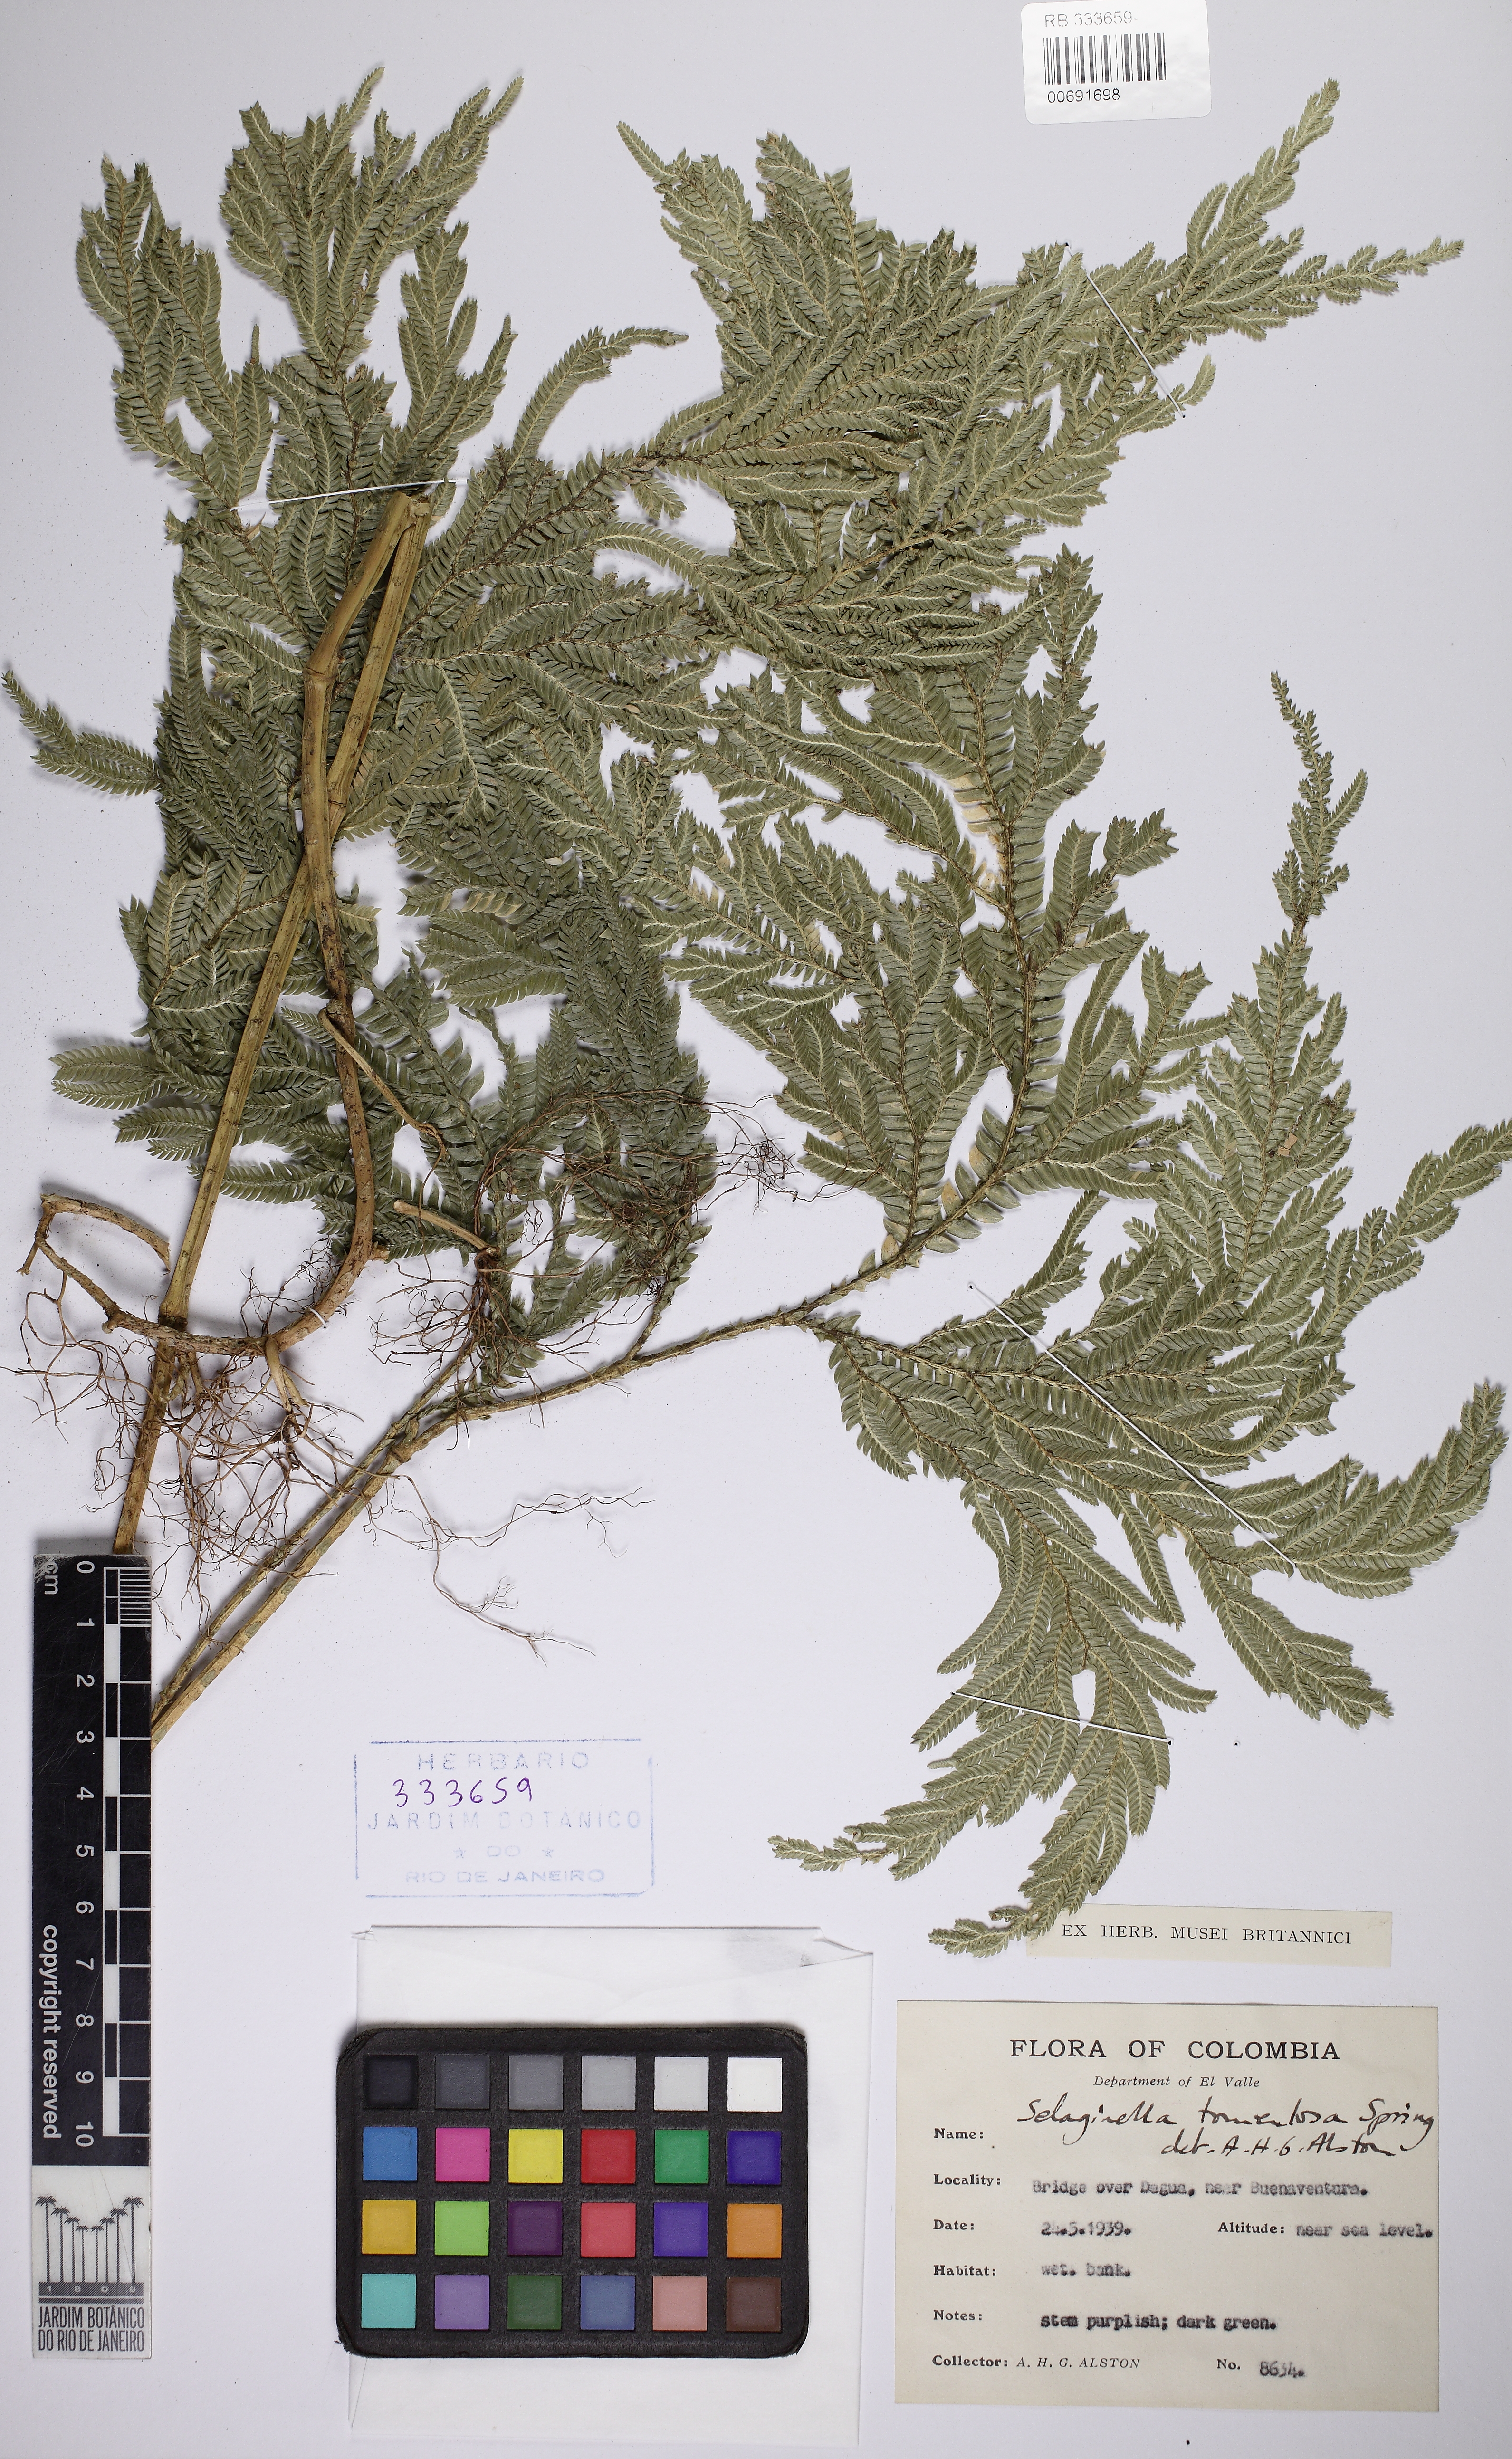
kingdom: Plantae
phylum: Tracheophyta
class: Lycopodiopsida
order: Selaginellales
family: Selaginellaceae
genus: Selaginella
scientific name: Selaginella tomentosa
